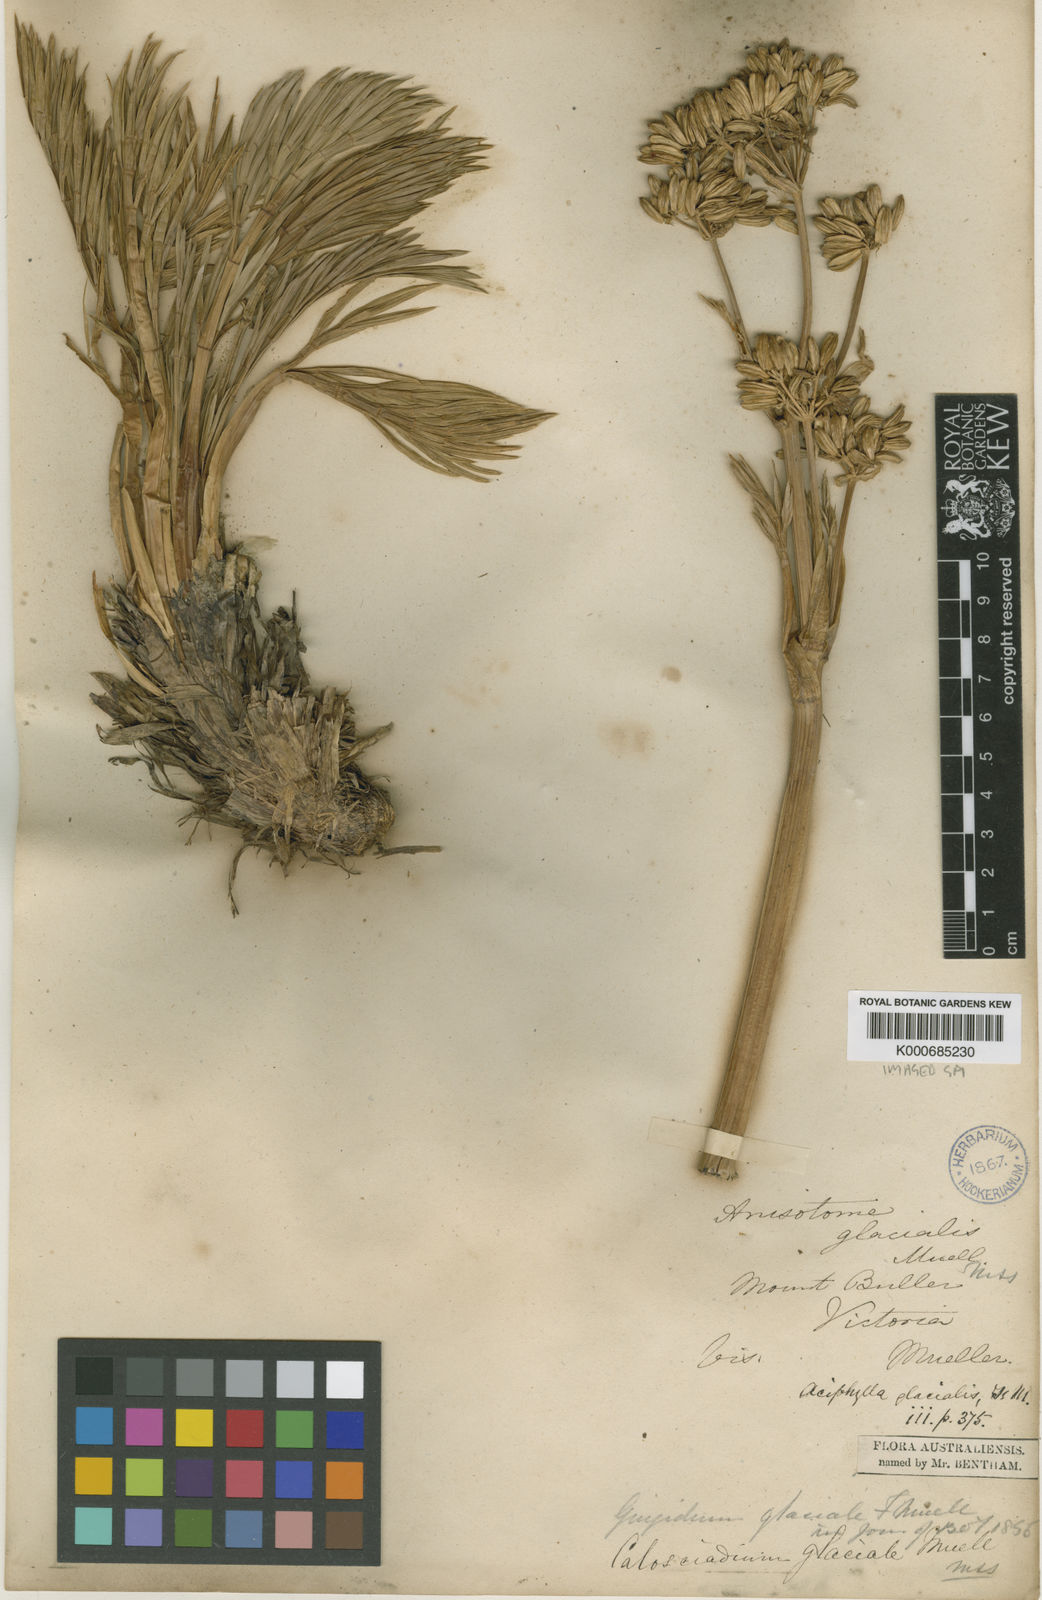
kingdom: Plantae
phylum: Tracheophyta
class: Magnoliopsida
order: Apiales
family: Apiaceae
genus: Aciphylla
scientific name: Aciphylla glacialis
